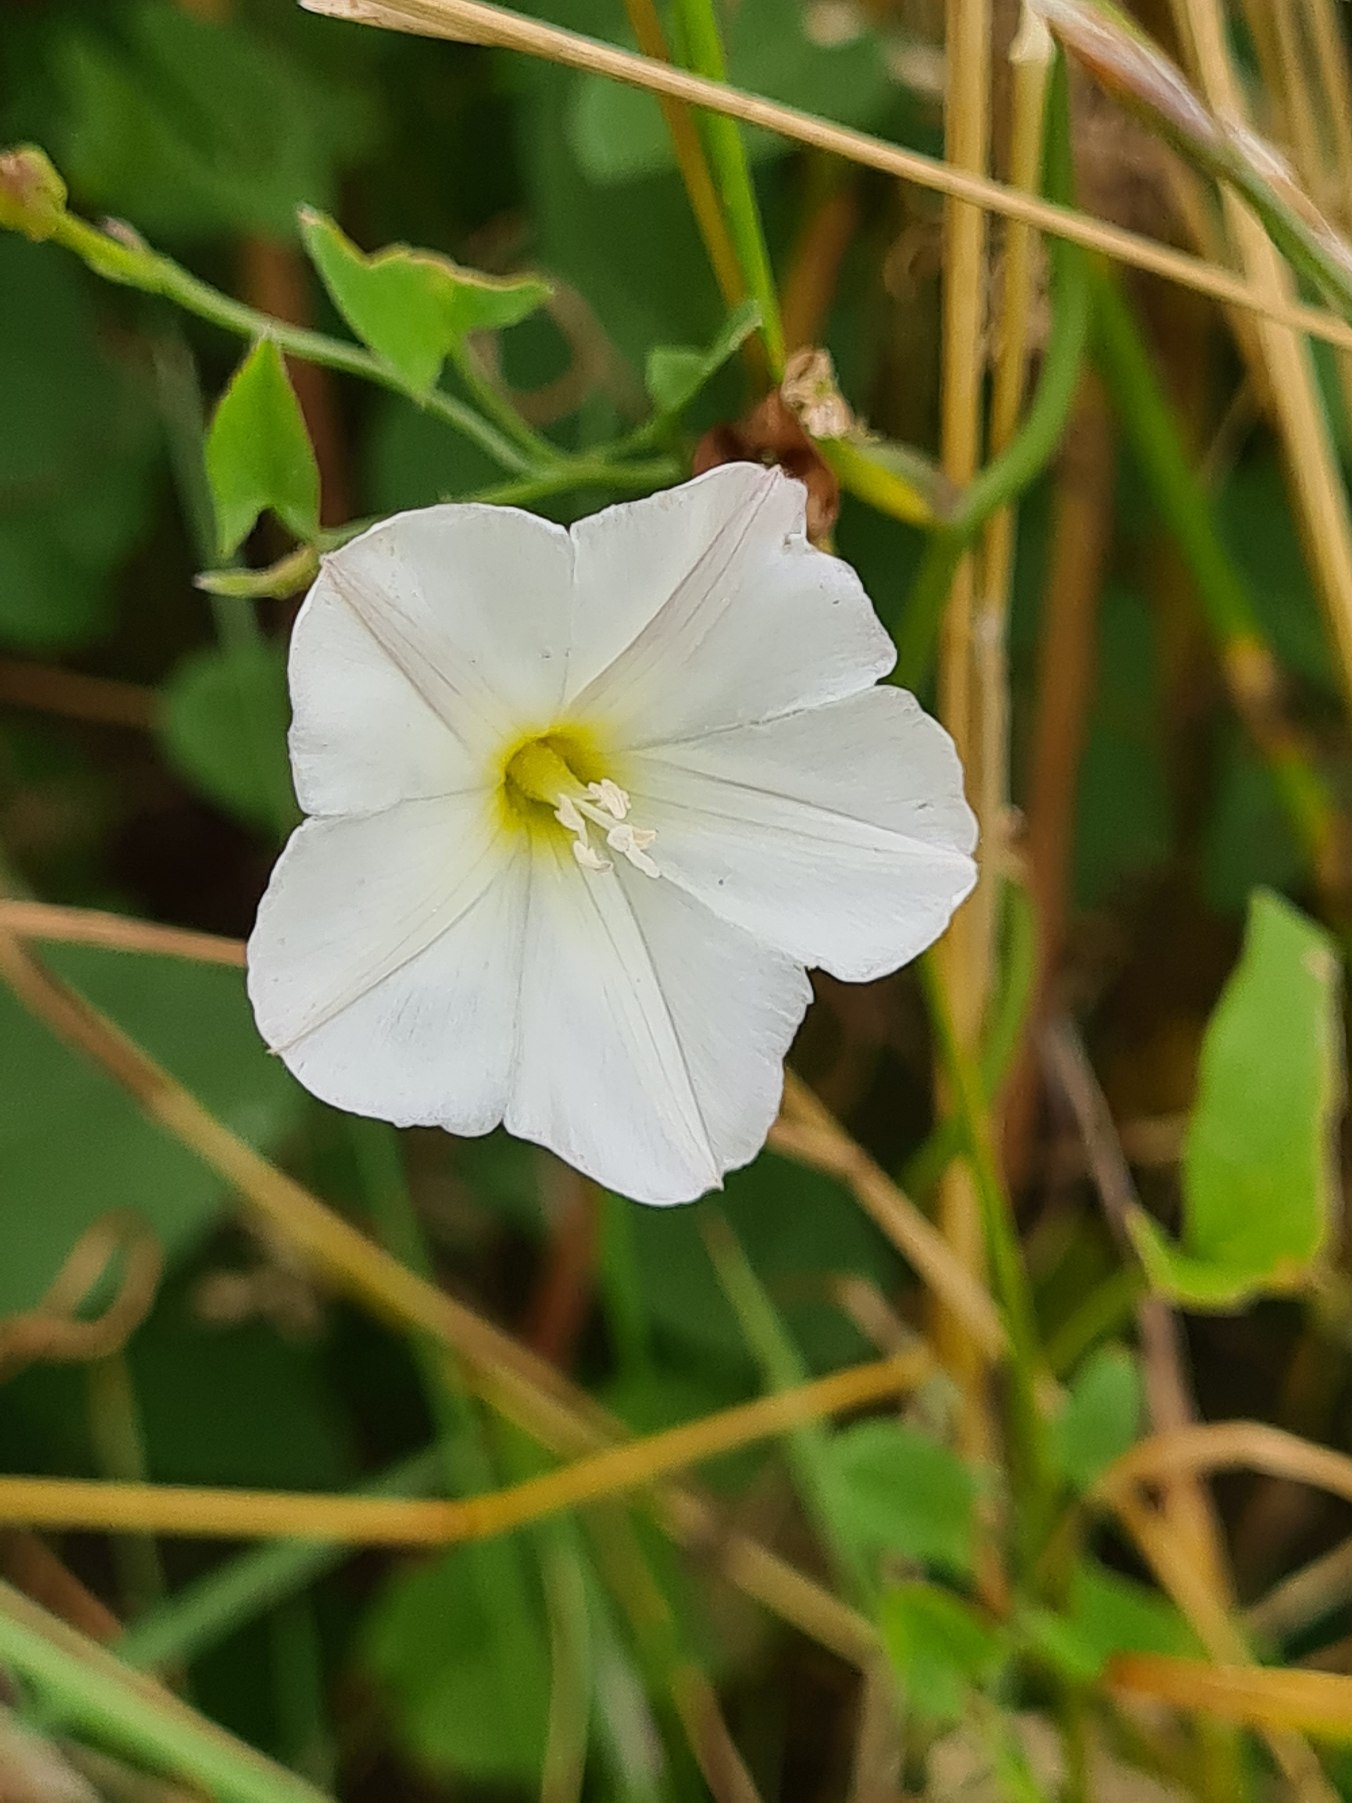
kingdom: Plantae
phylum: Tracheophyta
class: Magnoliopsida
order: Solanales
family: Convolvulaceae
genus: Convolvulus
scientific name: Convolvulus arvensis
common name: Ager-snerle
